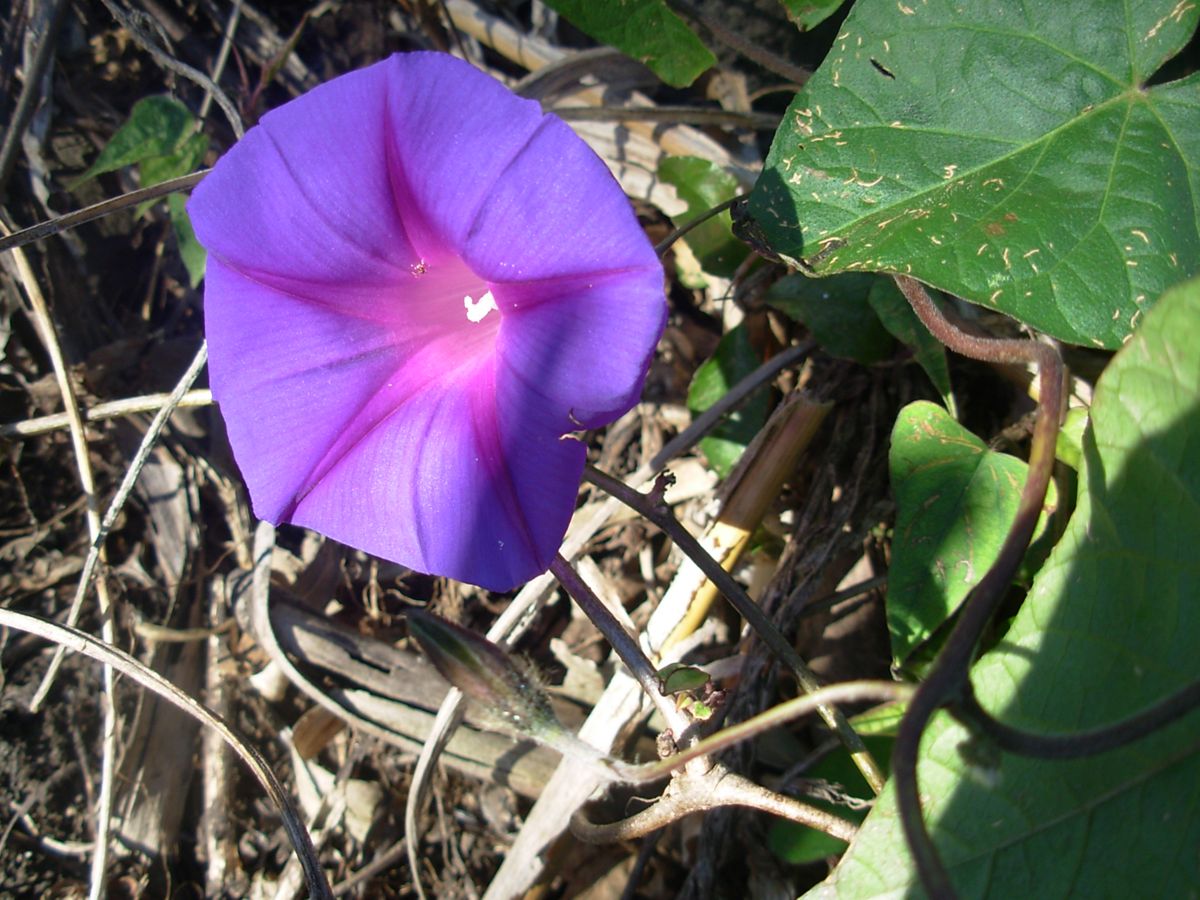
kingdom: Plantae
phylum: Tracheophyta
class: Magnoliopsida
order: Solanales
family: Convolvulaceae
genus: Ipomoea
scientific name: Ipomoea
